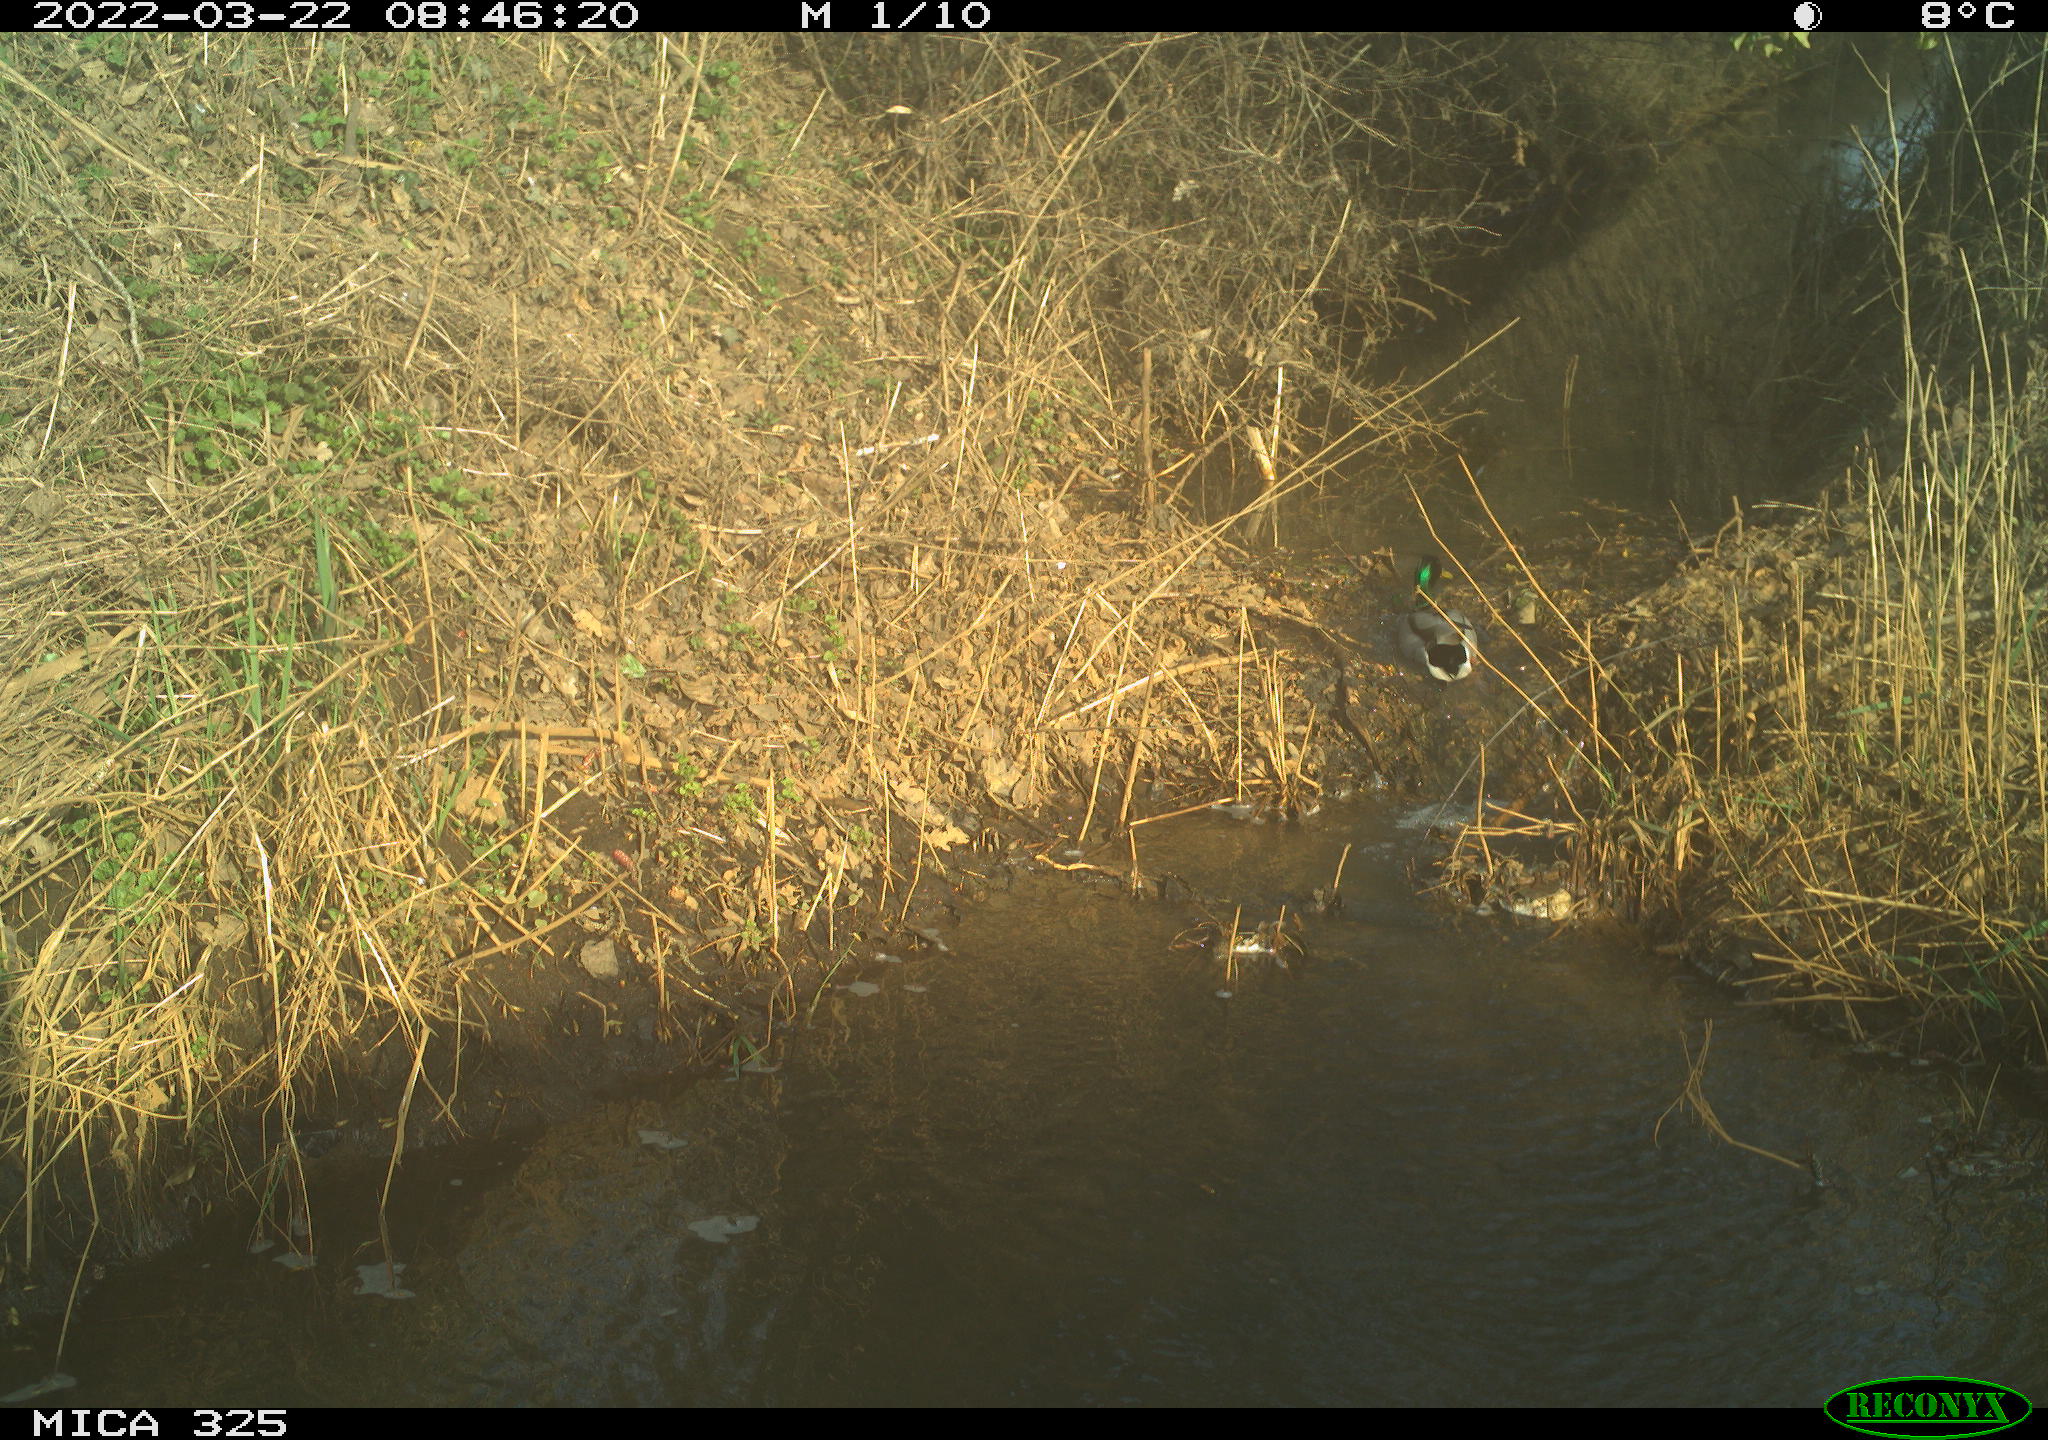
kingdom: Animalia
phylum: Chordata
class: Aves
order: Anseriformes
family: Anatidae
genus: Anas
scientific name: Anas platyrhynchos
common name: Mallard
